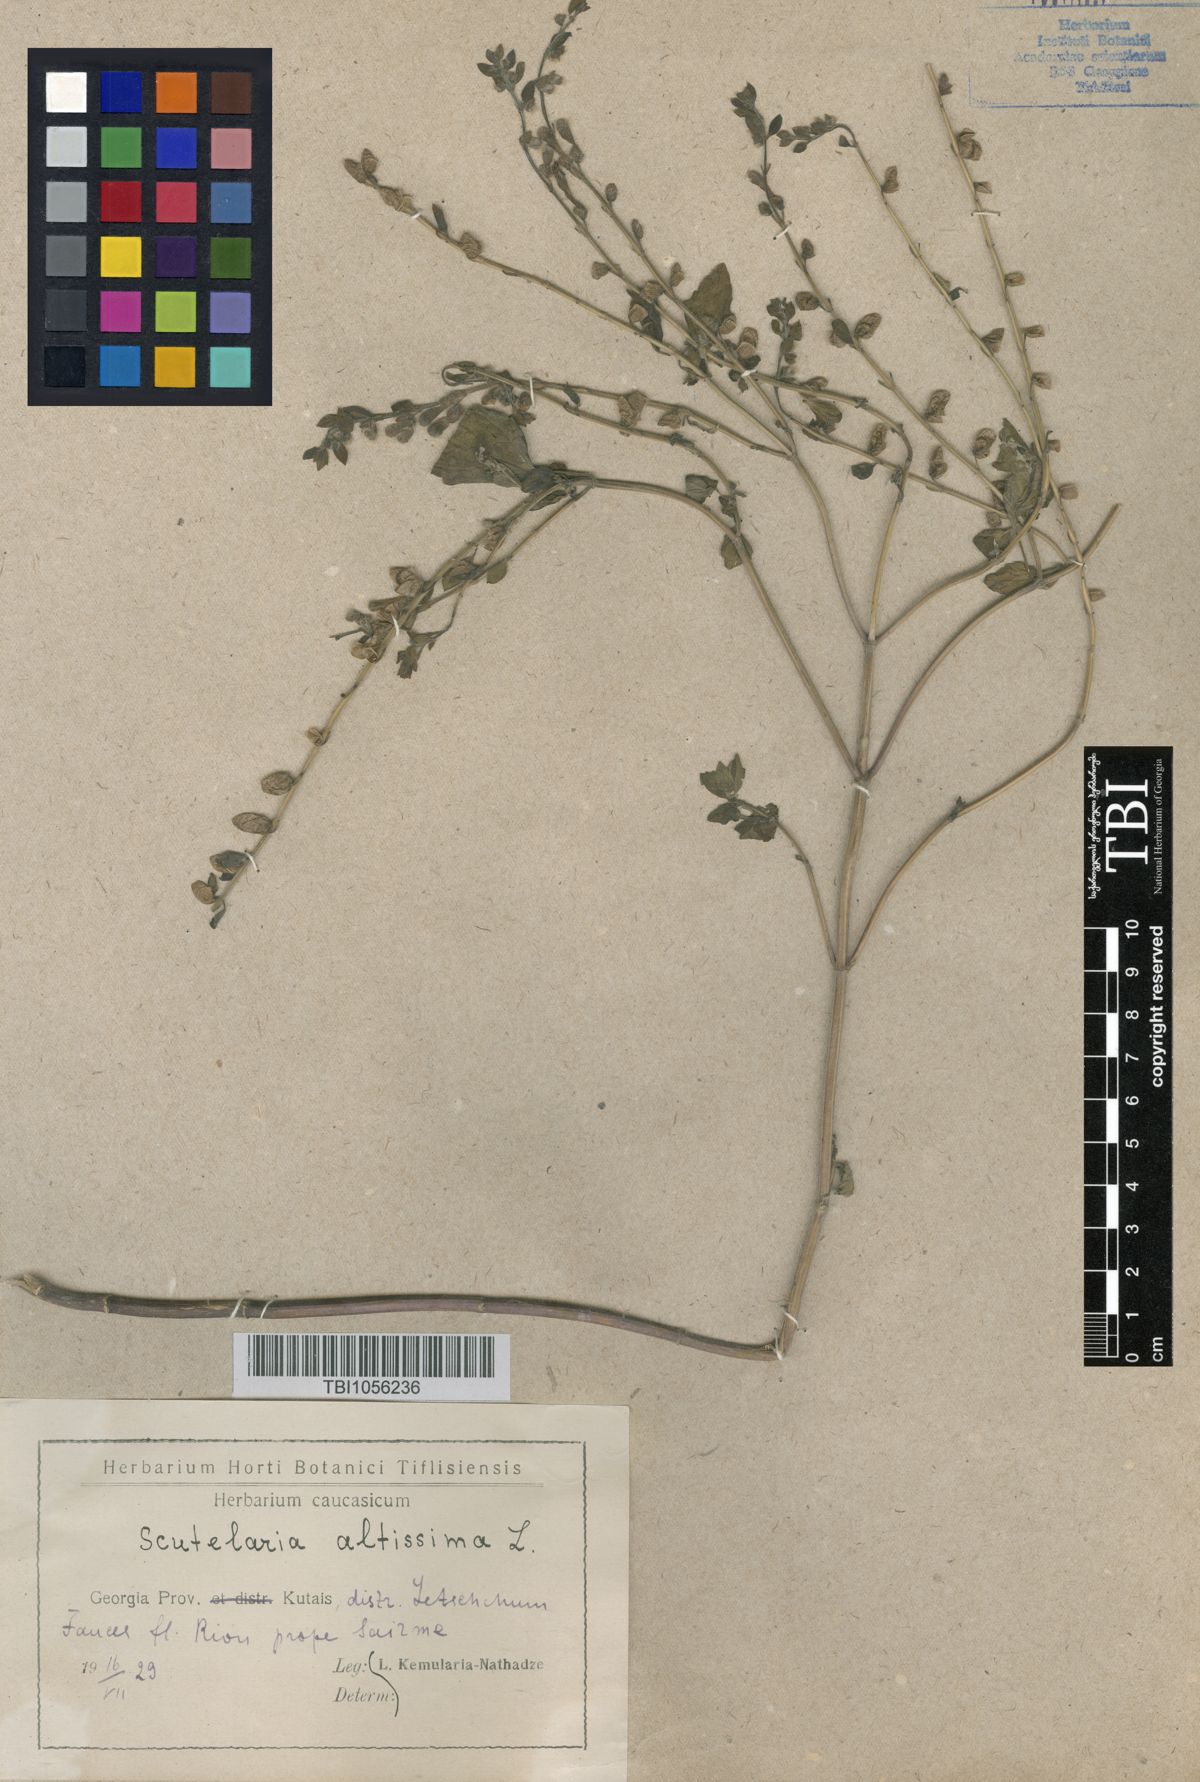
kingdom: Plantae
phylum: Tracheophyta
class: Magnoliopsida
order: Lamiales
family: Lamiaceae
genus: Scutellaria
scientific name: Scutellaria altissima
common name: Somerset skullcap
